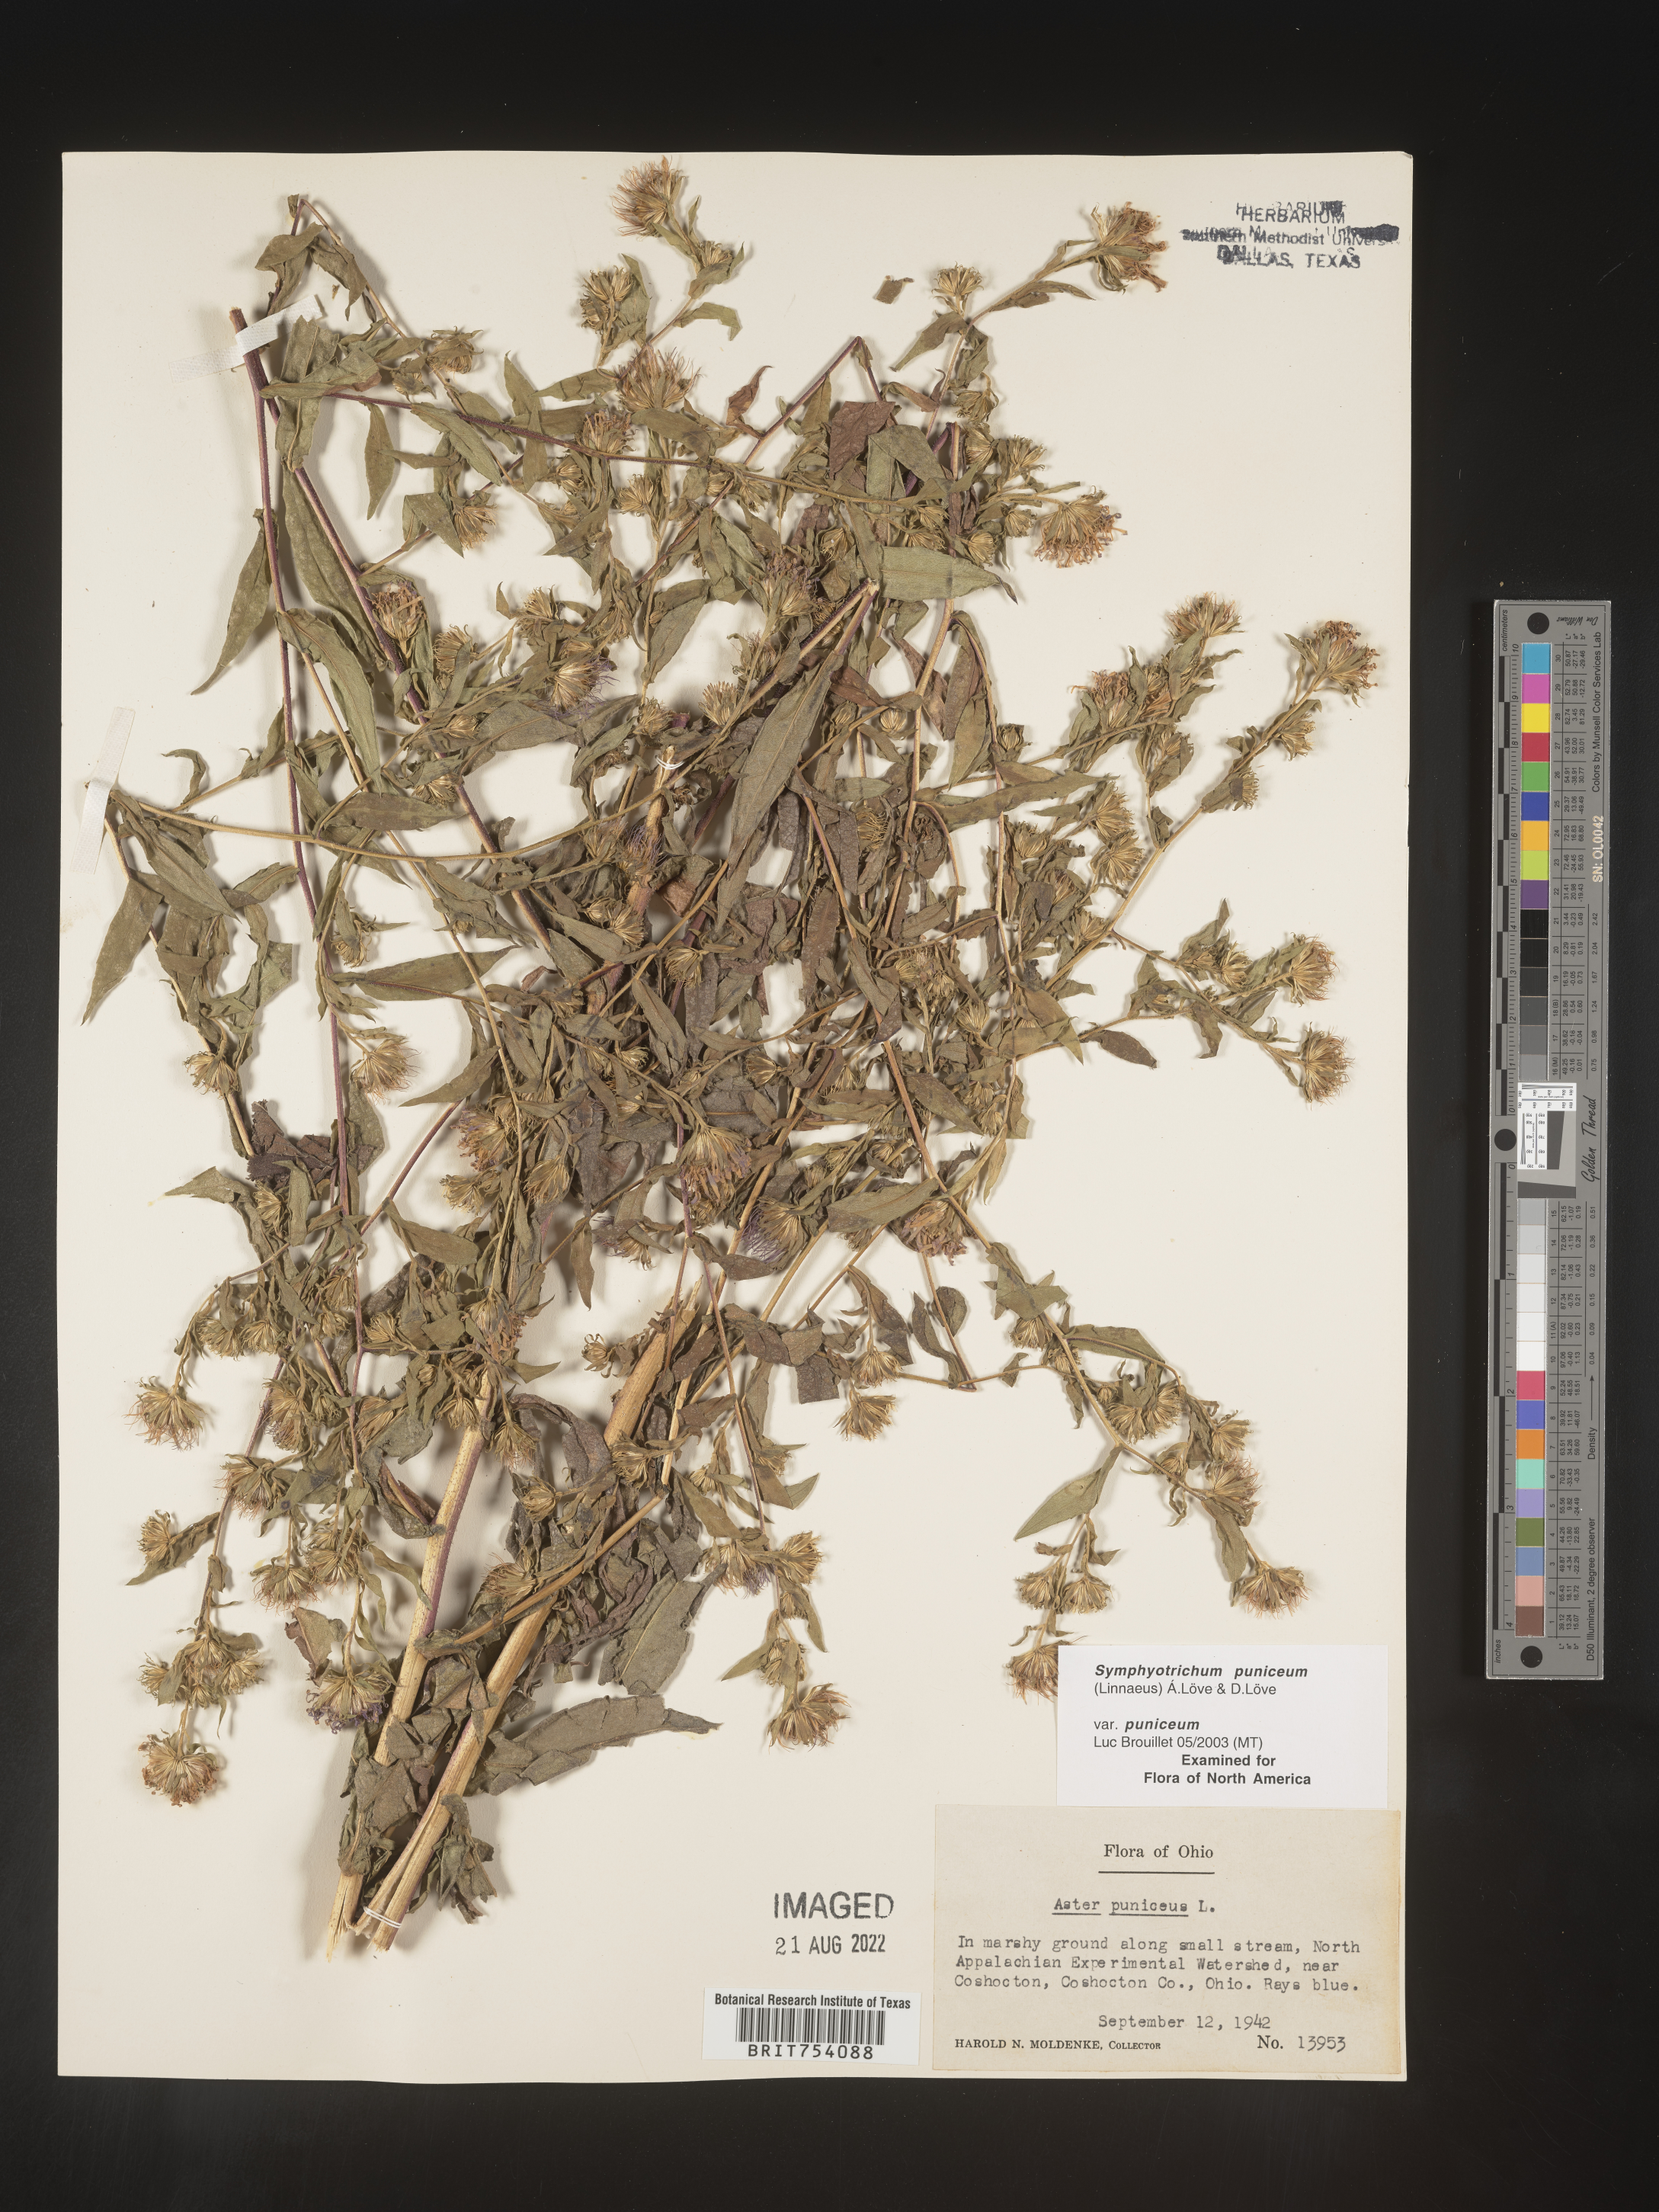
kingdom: Plantae
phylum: Tracheophyta
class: Magnoliopsida
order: Asterales
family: Asteraceae
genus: Symphyotrichum
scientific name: Symphyotrichum puniceum
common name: Bog aster
